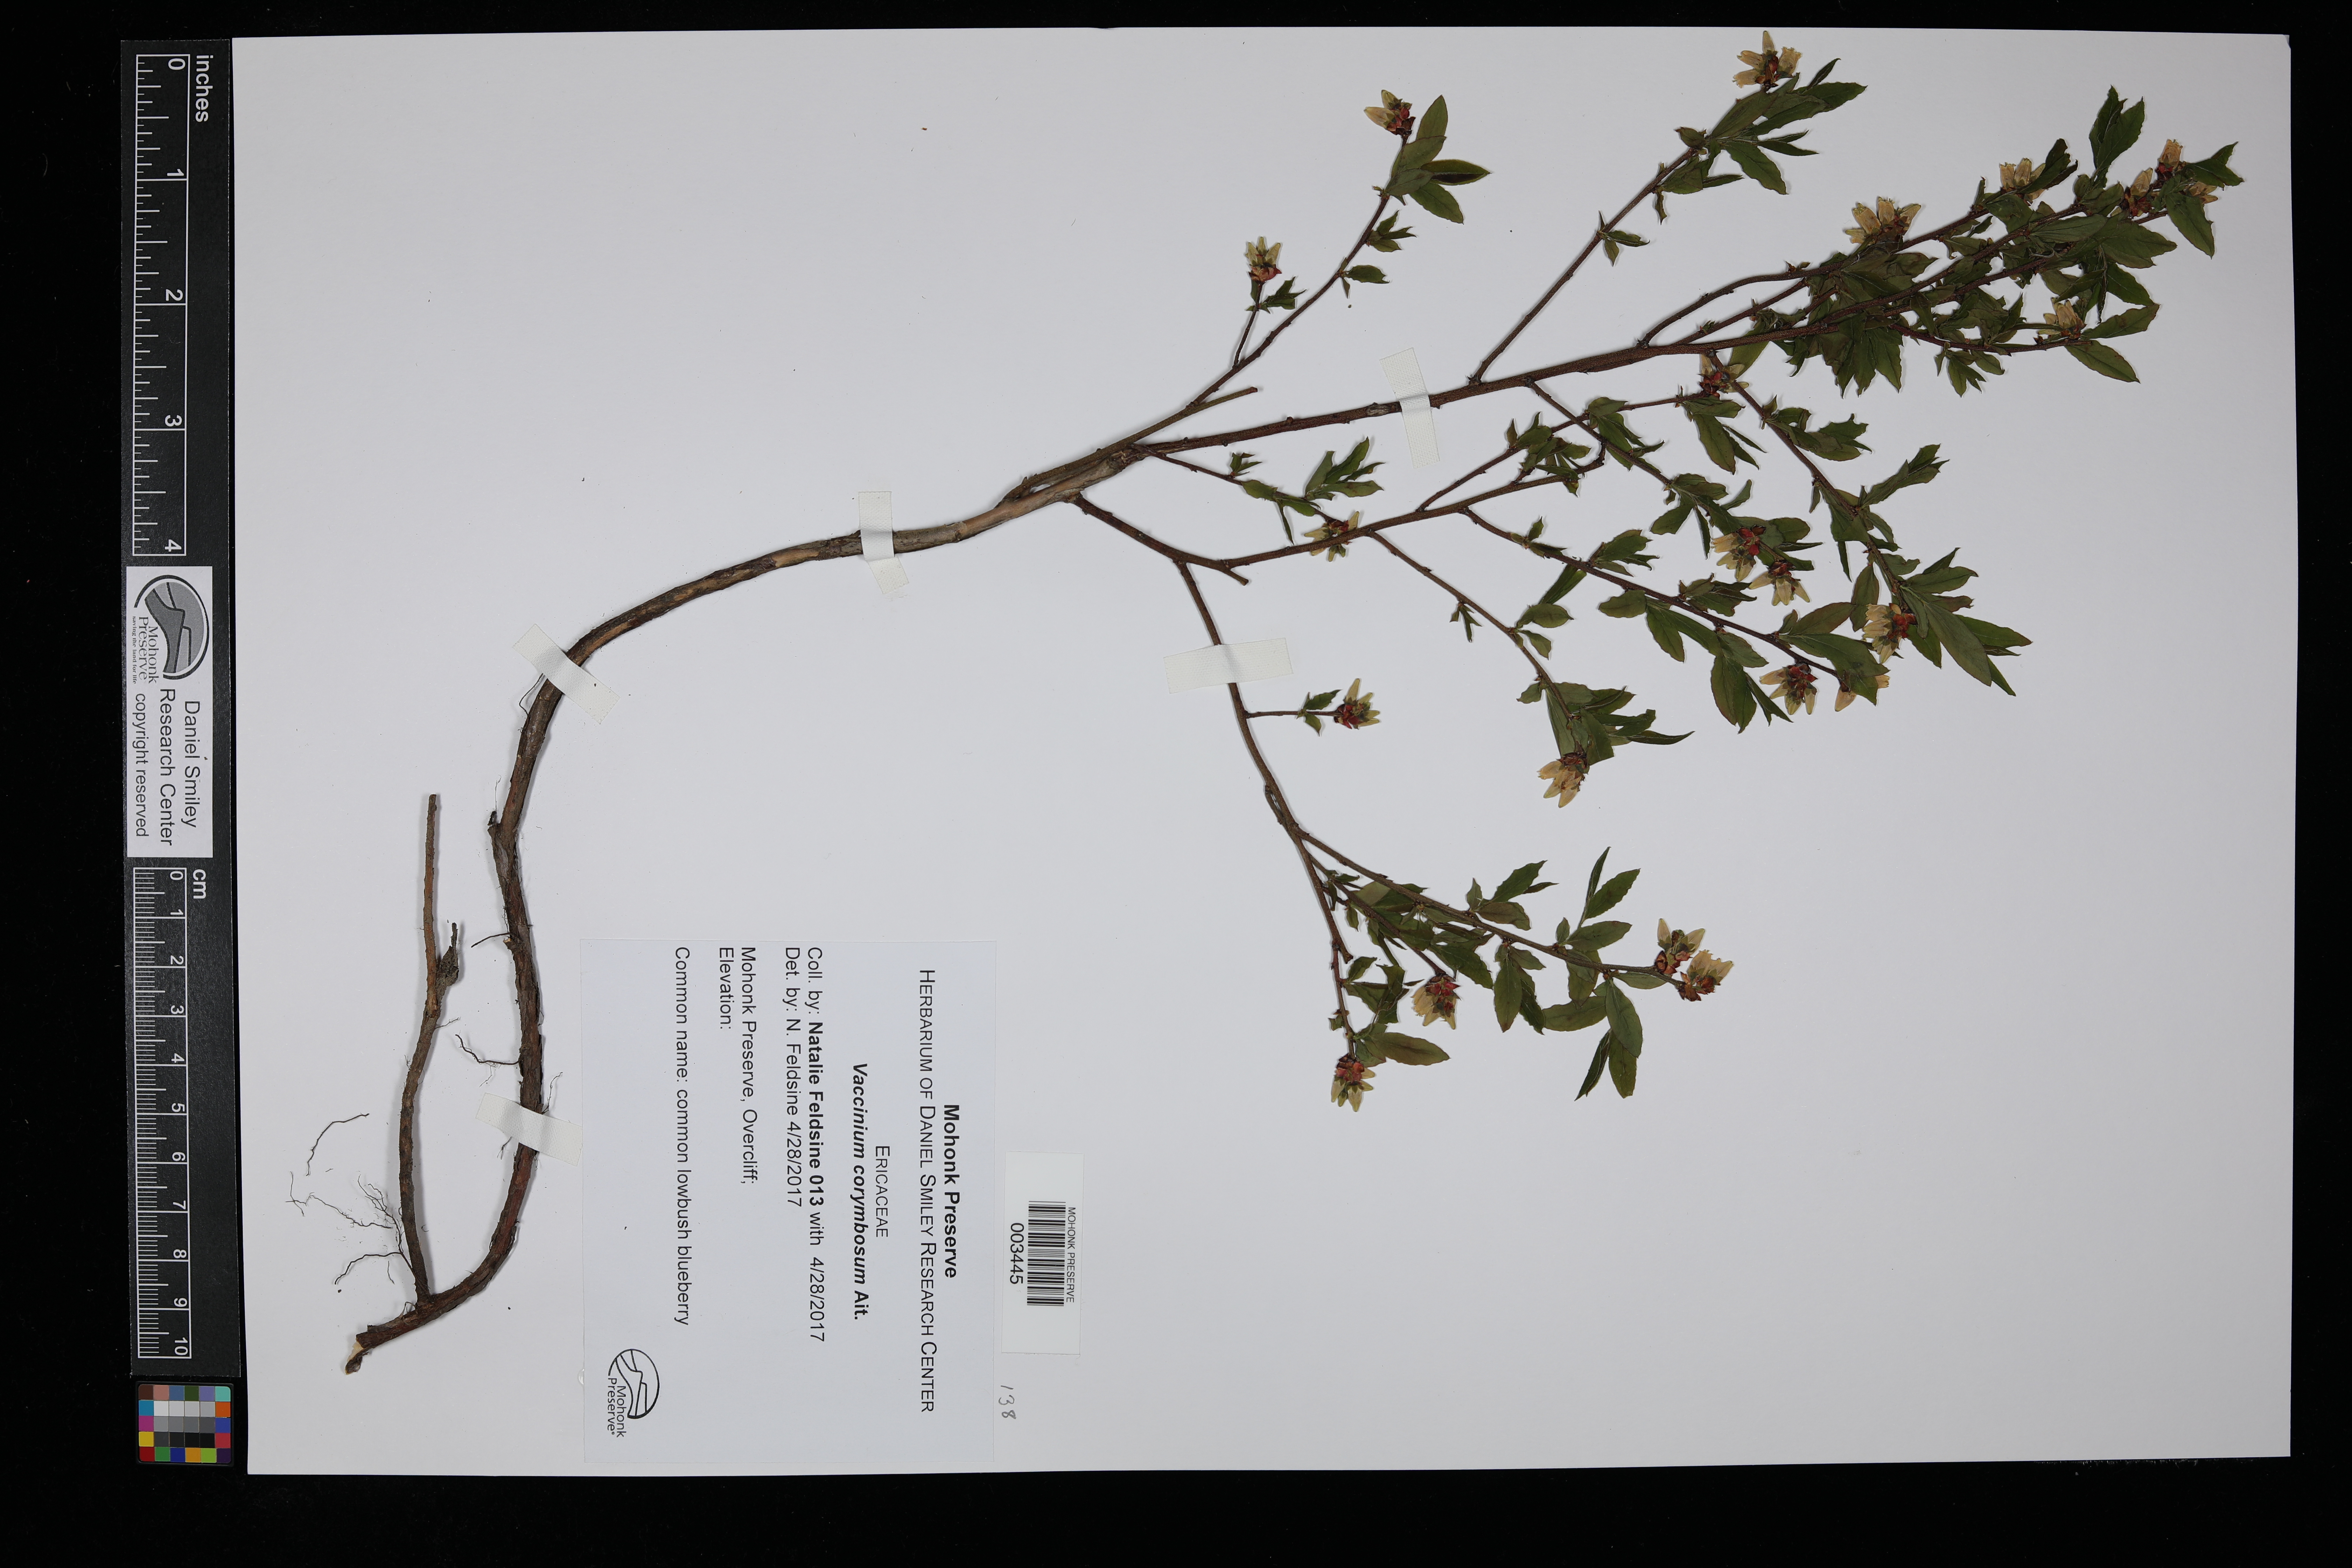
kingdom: Plantae
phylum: Tracheophyta
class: Magnoliopsida
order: Ericales
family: Ericaceae
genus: Vaccinium
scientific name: Vaccinium corymbosum
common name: Blueberry
